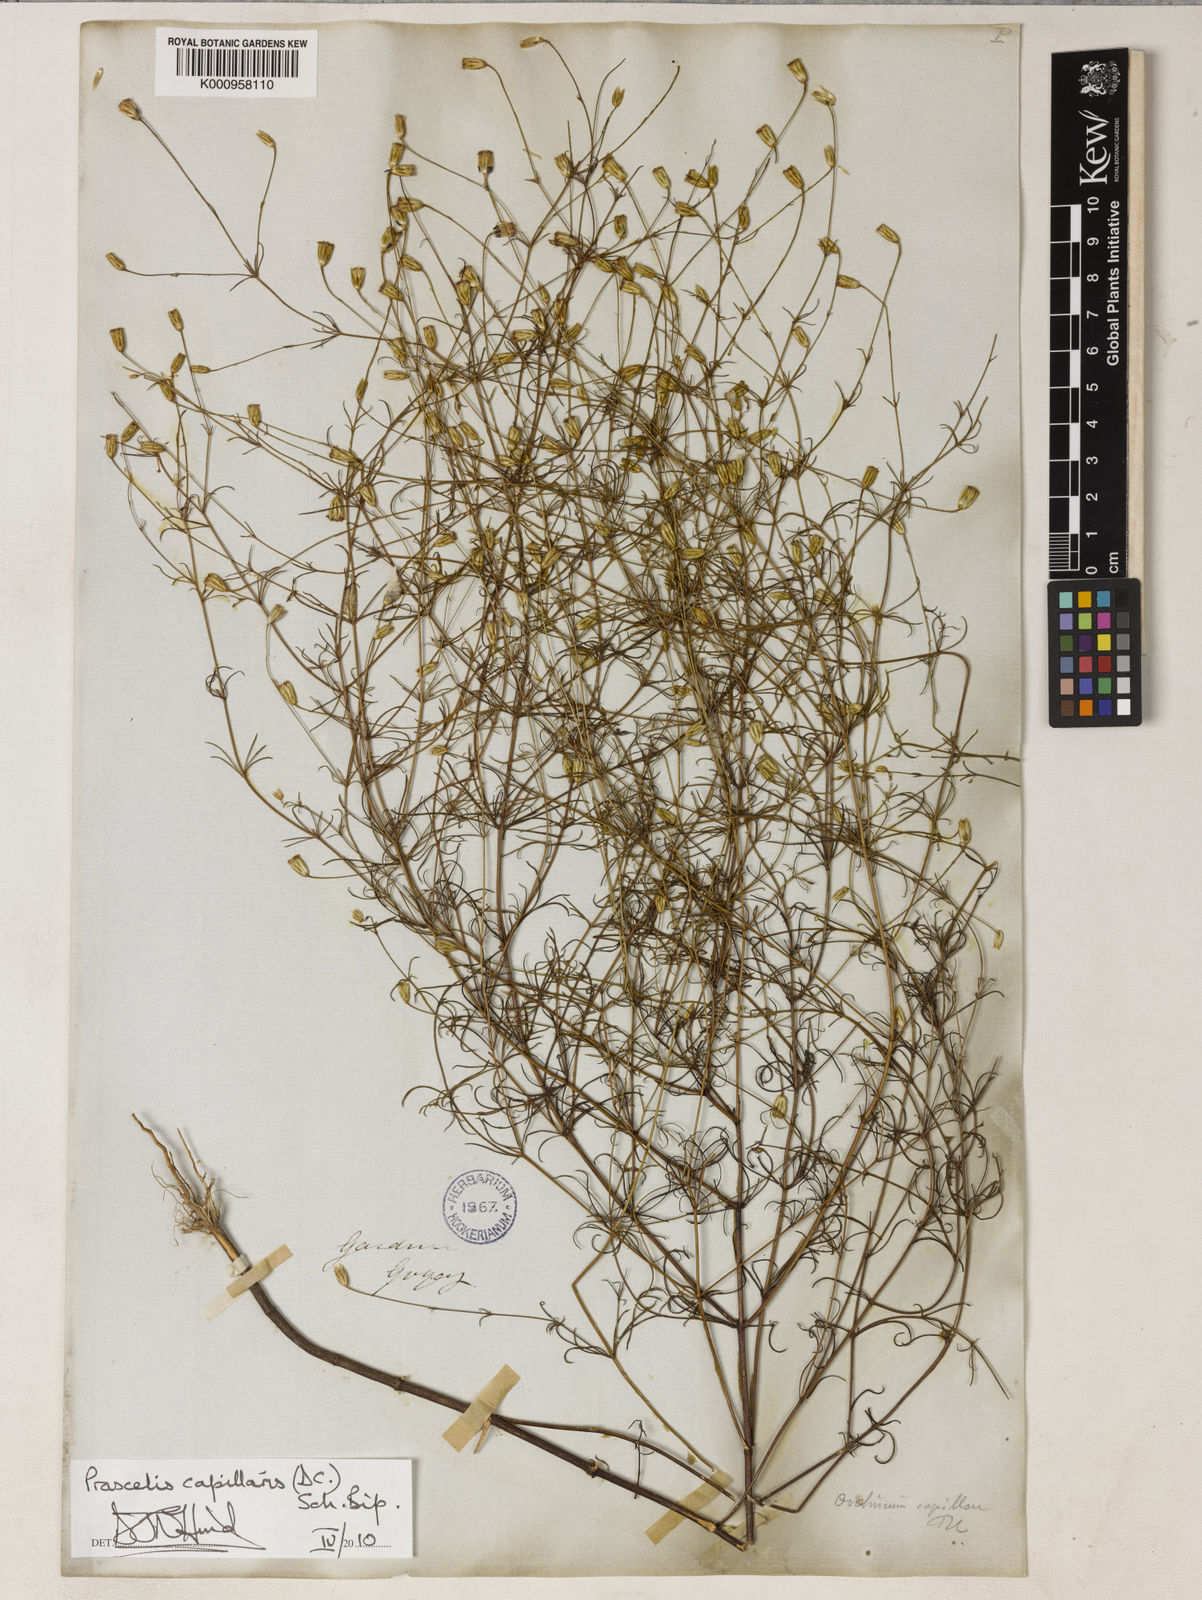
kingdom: Plantae
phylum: Tracheophyta
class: Magnoliopsida
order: Asterales
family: Asteraceae
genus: Praxelis
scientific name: Praxelis capillaris
